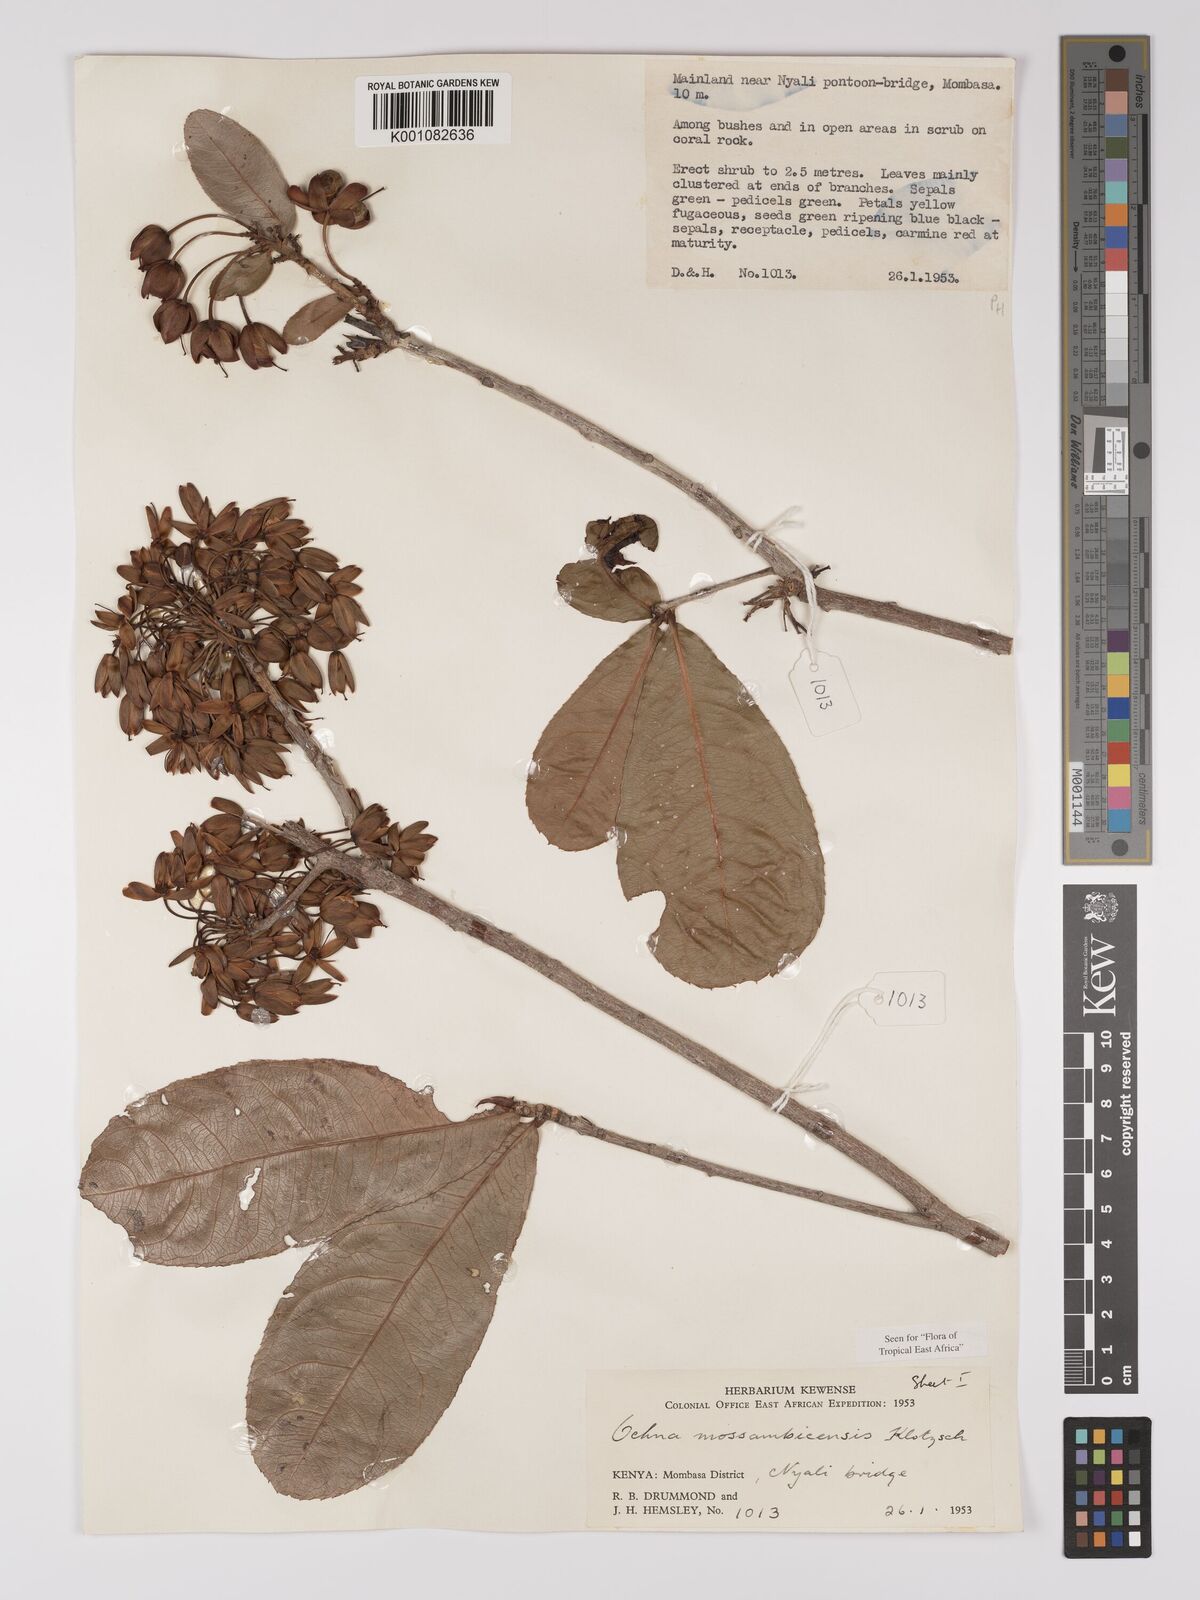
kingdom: Plantae
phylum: Tracheophyta
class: Magnoliopsida
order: Malpighiales
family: Ochnaceae
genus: Ochna
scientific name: Ochna atropurpurea
